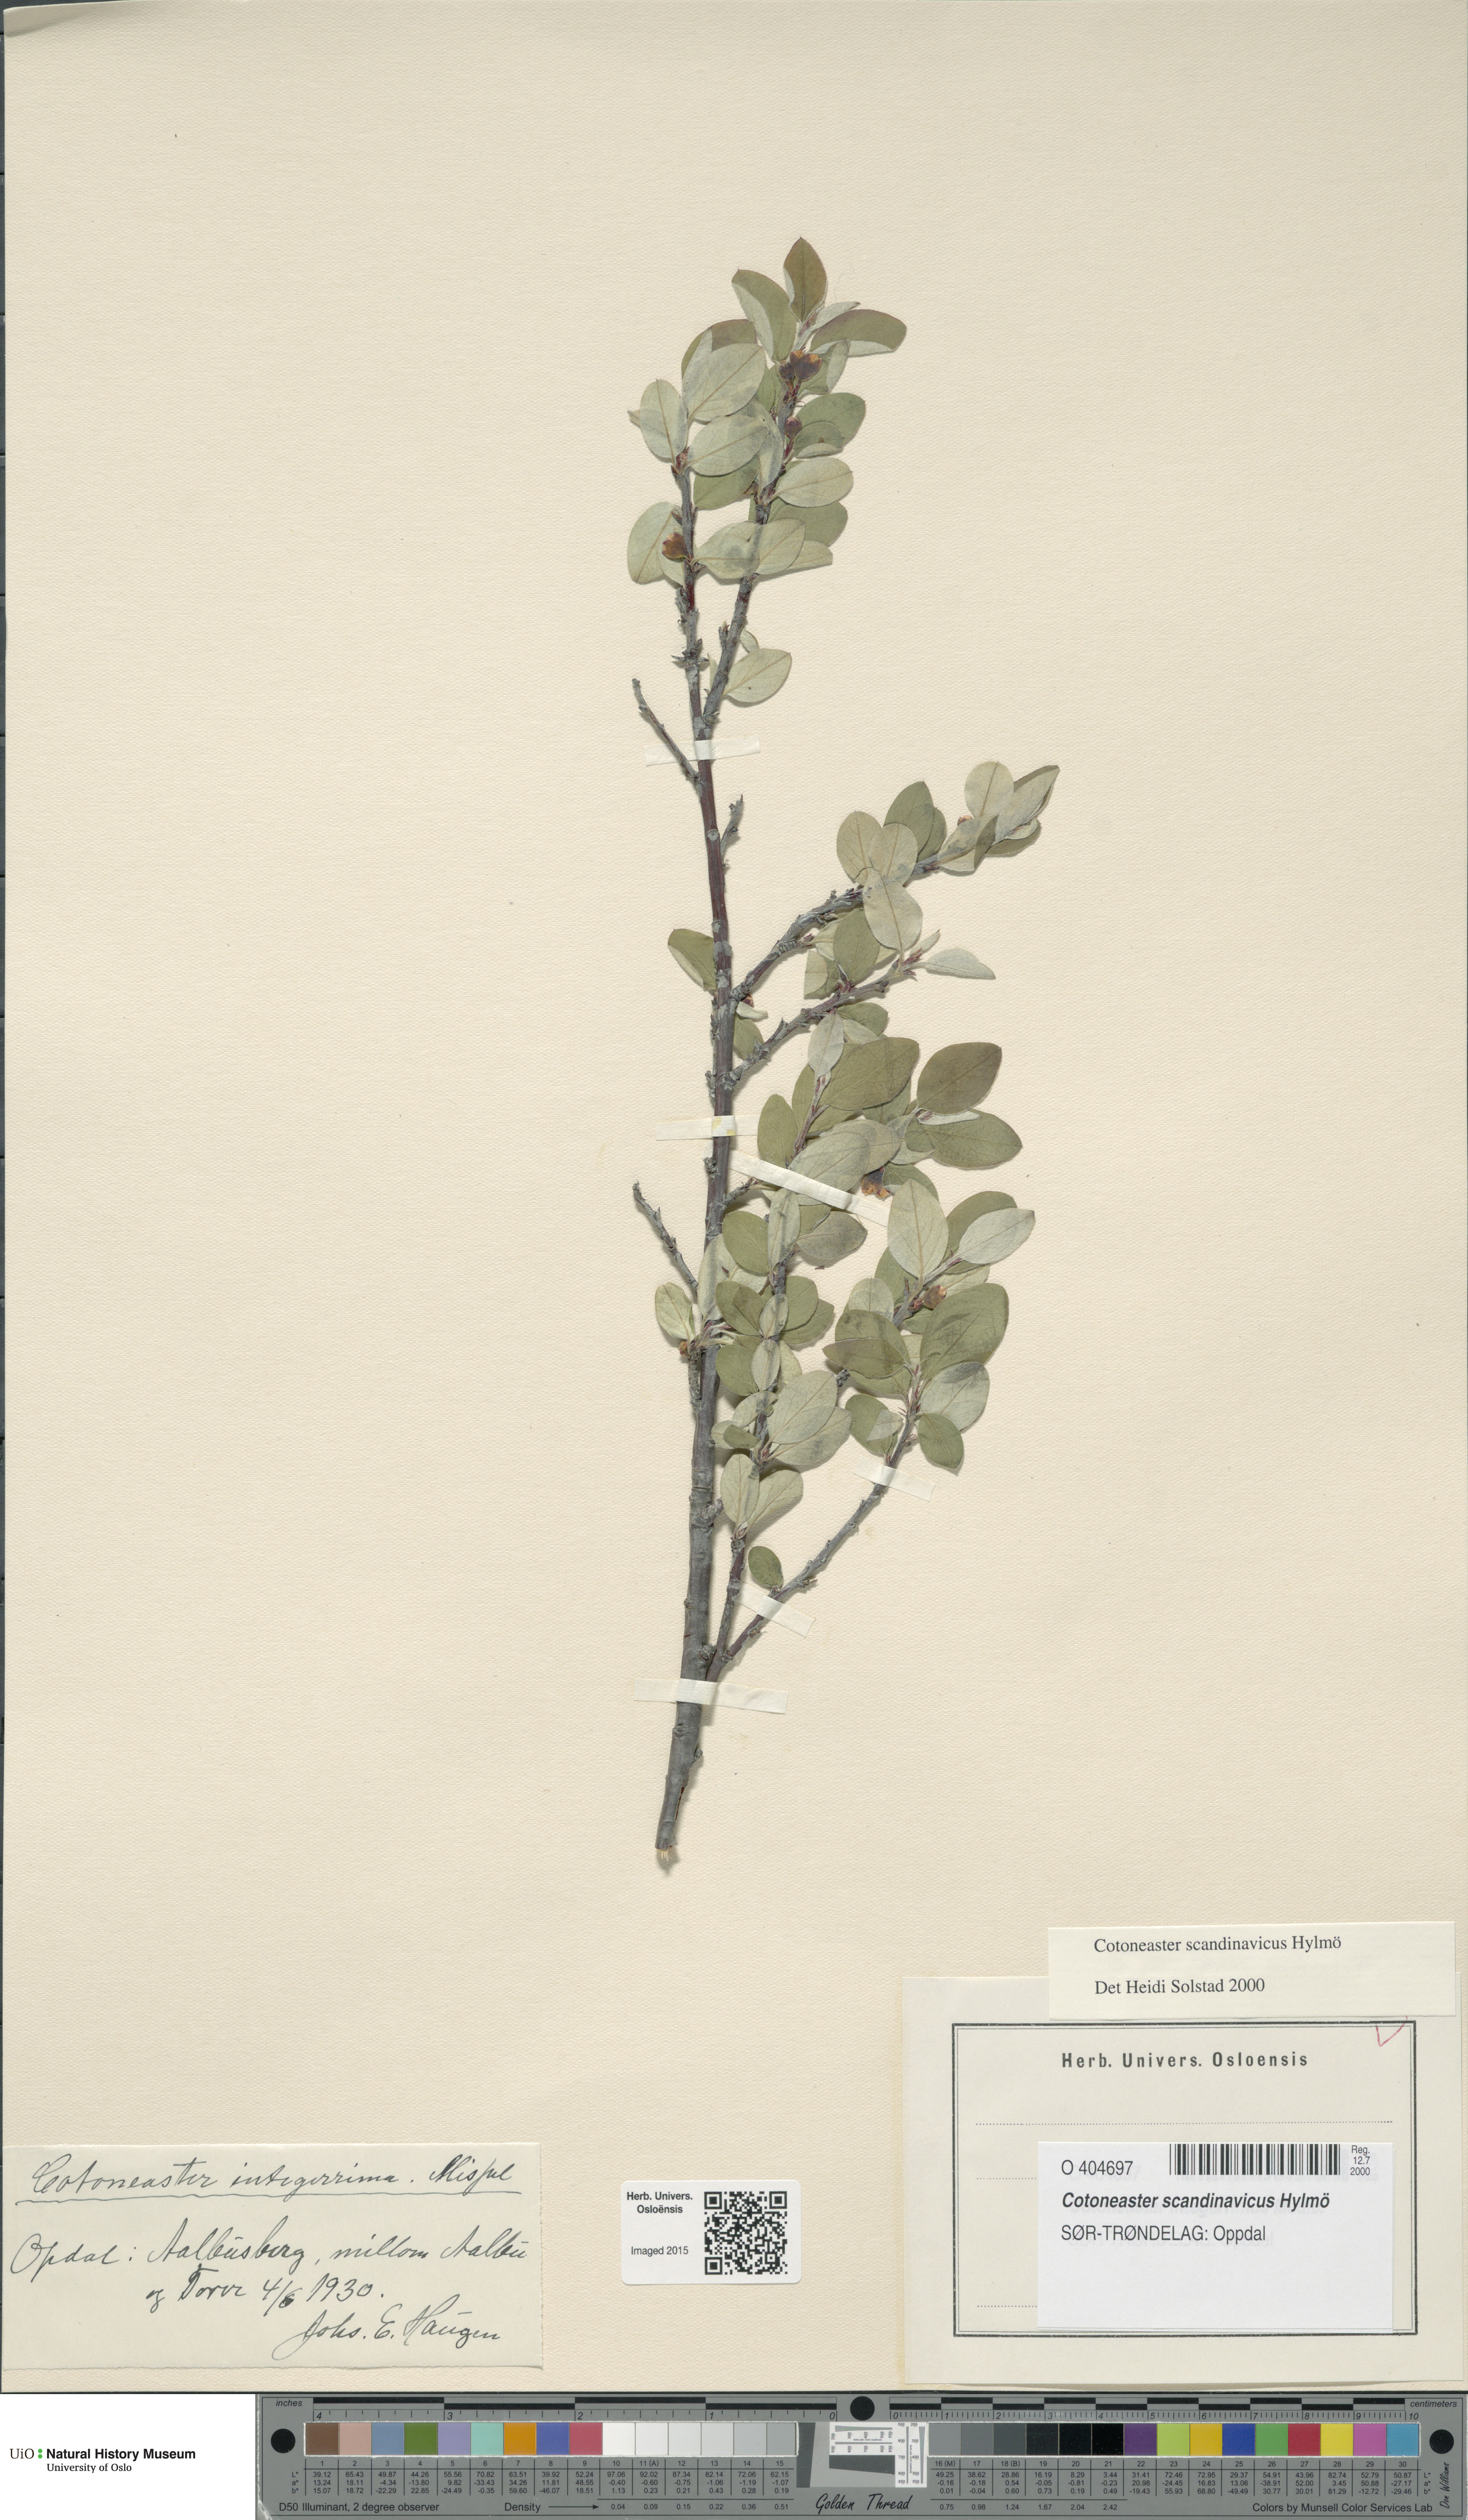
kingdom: Plantae
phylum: Tracheophyta
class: Magnoliopsida
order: Rosales
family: Rosaceae
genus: Cotoneaster
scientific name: Cotoneaster integerrimus
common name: Wild cotoneaster
